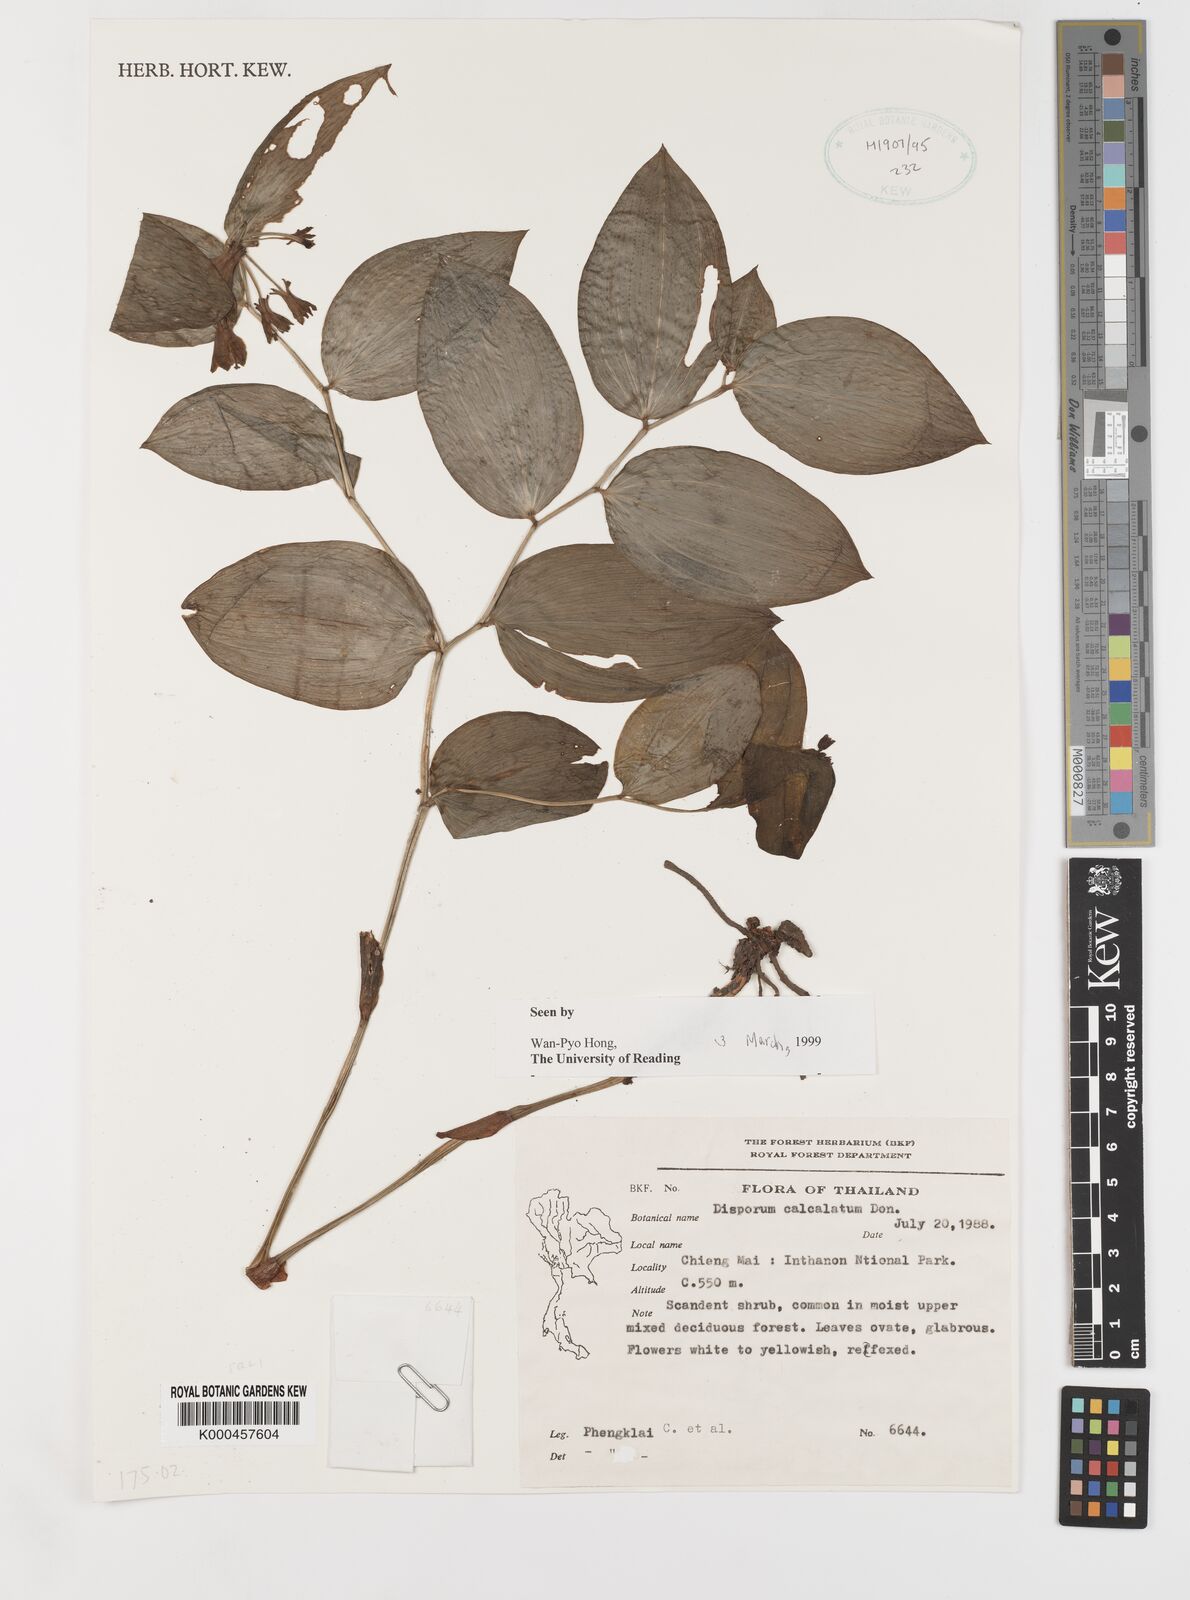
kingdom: Plantae
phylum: Tracheophyta
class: Liliopsida
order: Liliales
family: Colchicaceae
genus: Disporum
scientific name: Disporum calcaratum
